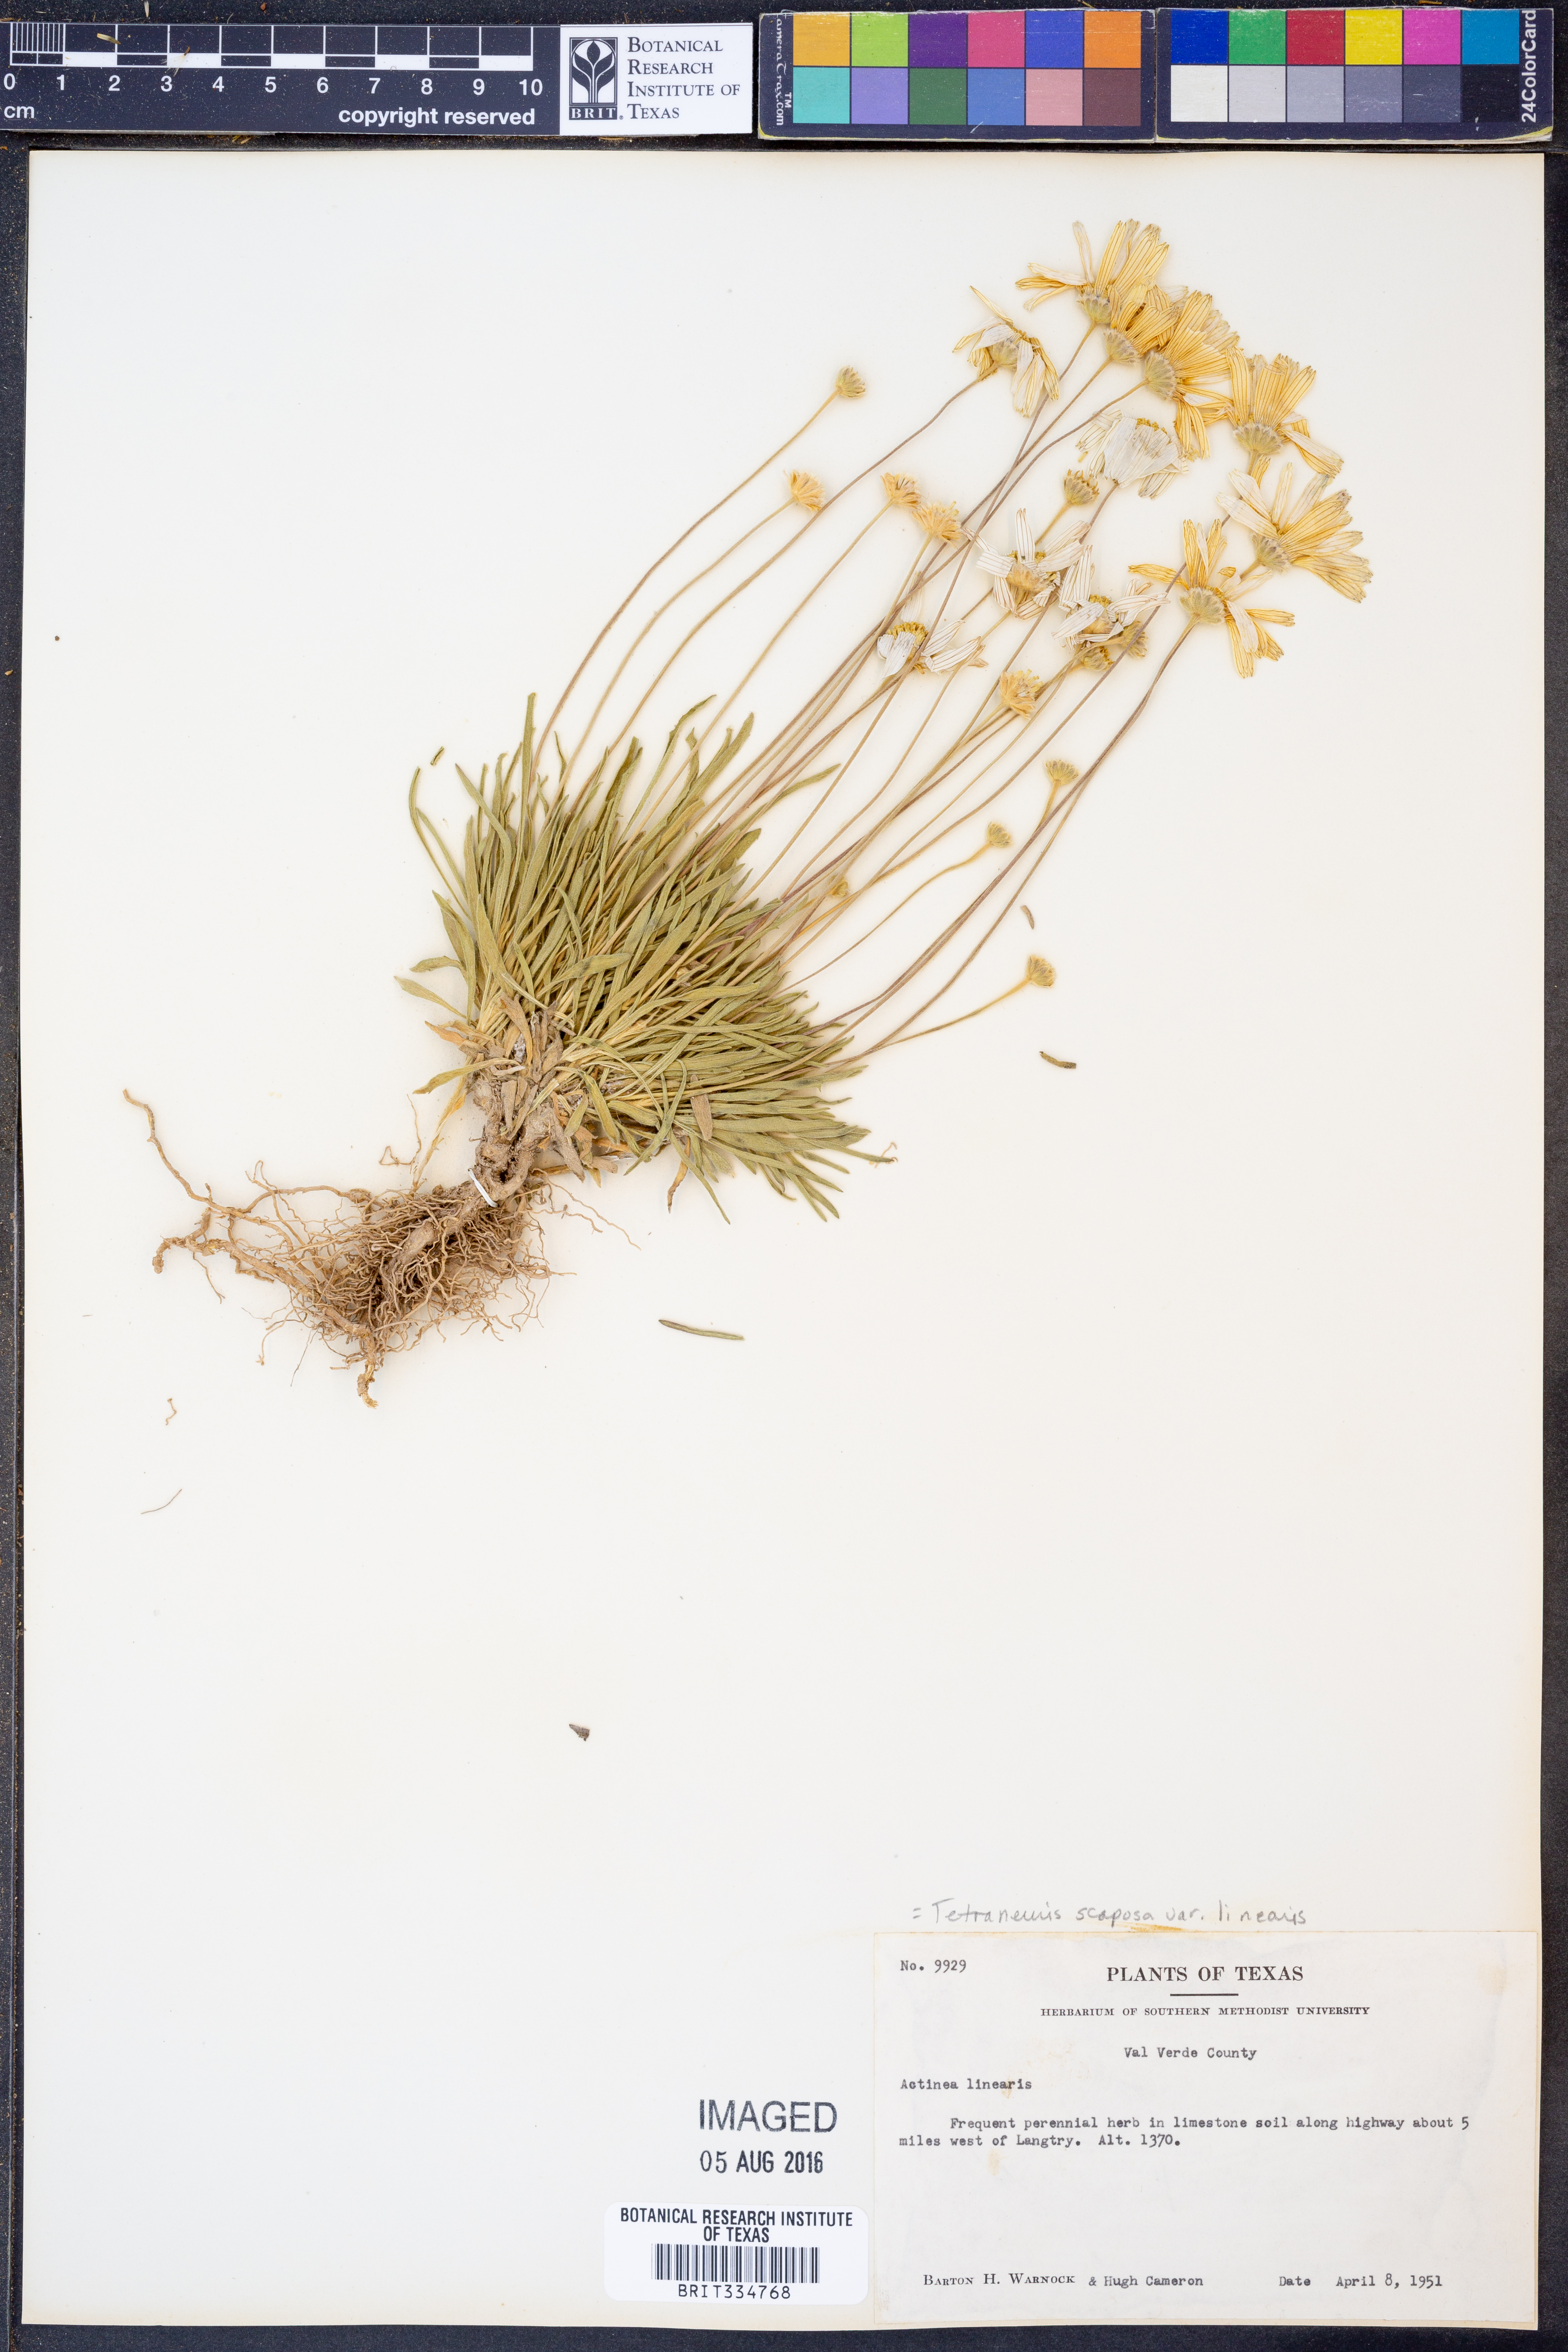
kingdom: Plantae
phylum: Tracheophyta
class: Magnoliopsida
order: Asterales
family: Asteraceae
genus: Tetraneuris
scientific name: Tetraneuris scaposa
